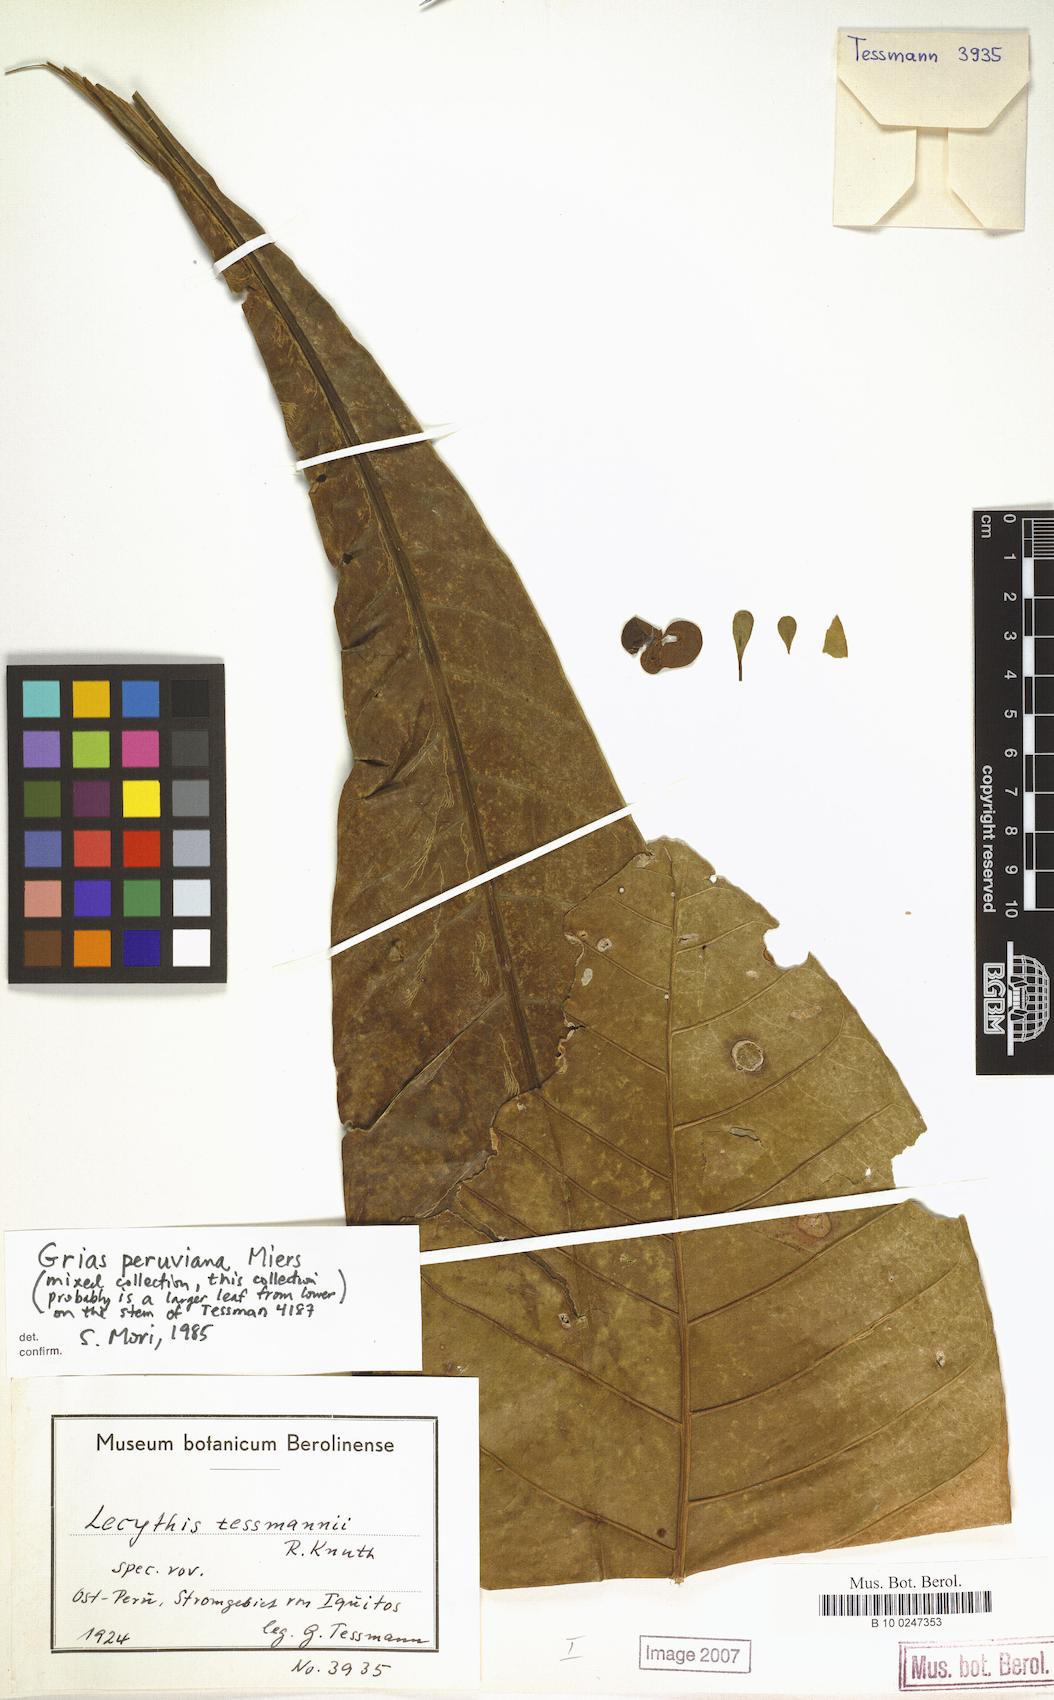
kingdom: Plantae
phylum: Tracheophyta
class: Magnoliopsida
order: Ericales
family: Lecythidaceae
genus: Grias
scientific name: Grias peruviana
